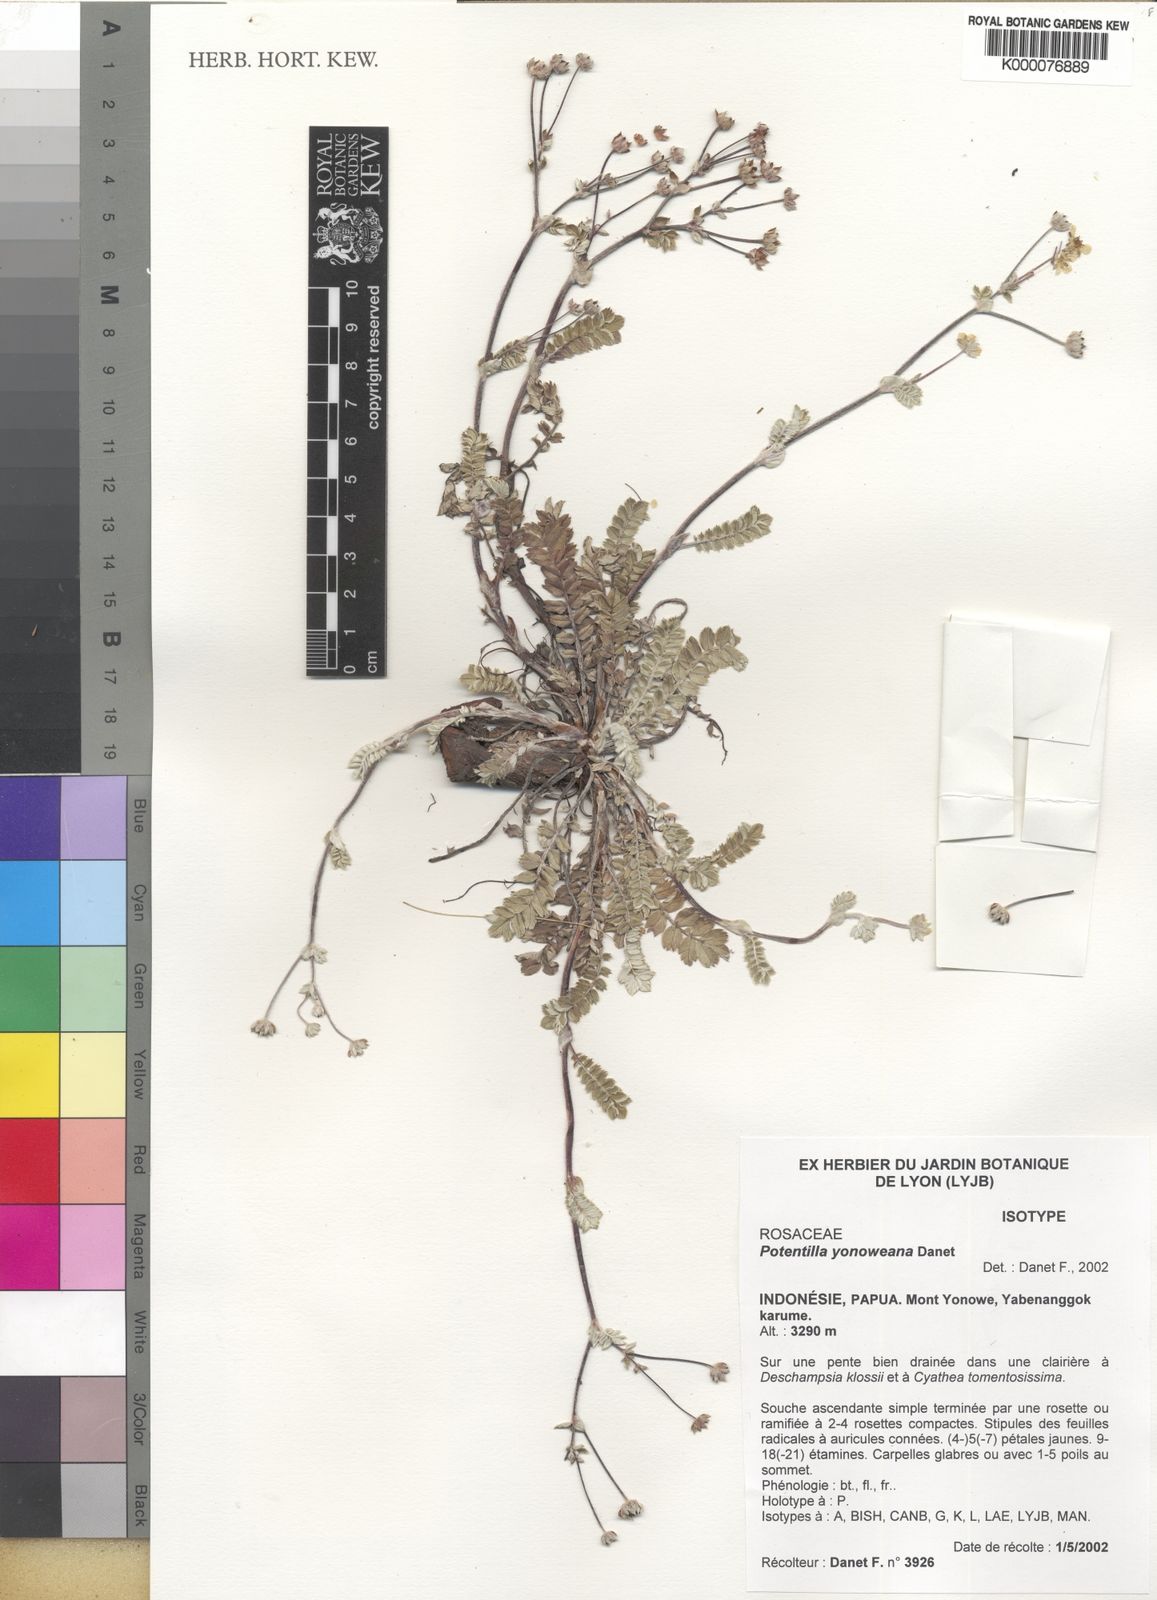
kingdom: Plantae
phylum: Tracheophyta
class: Magnoliopsida
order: Rosales
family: Rosaceae
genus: Argentina
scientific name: Argentina yonoweana
